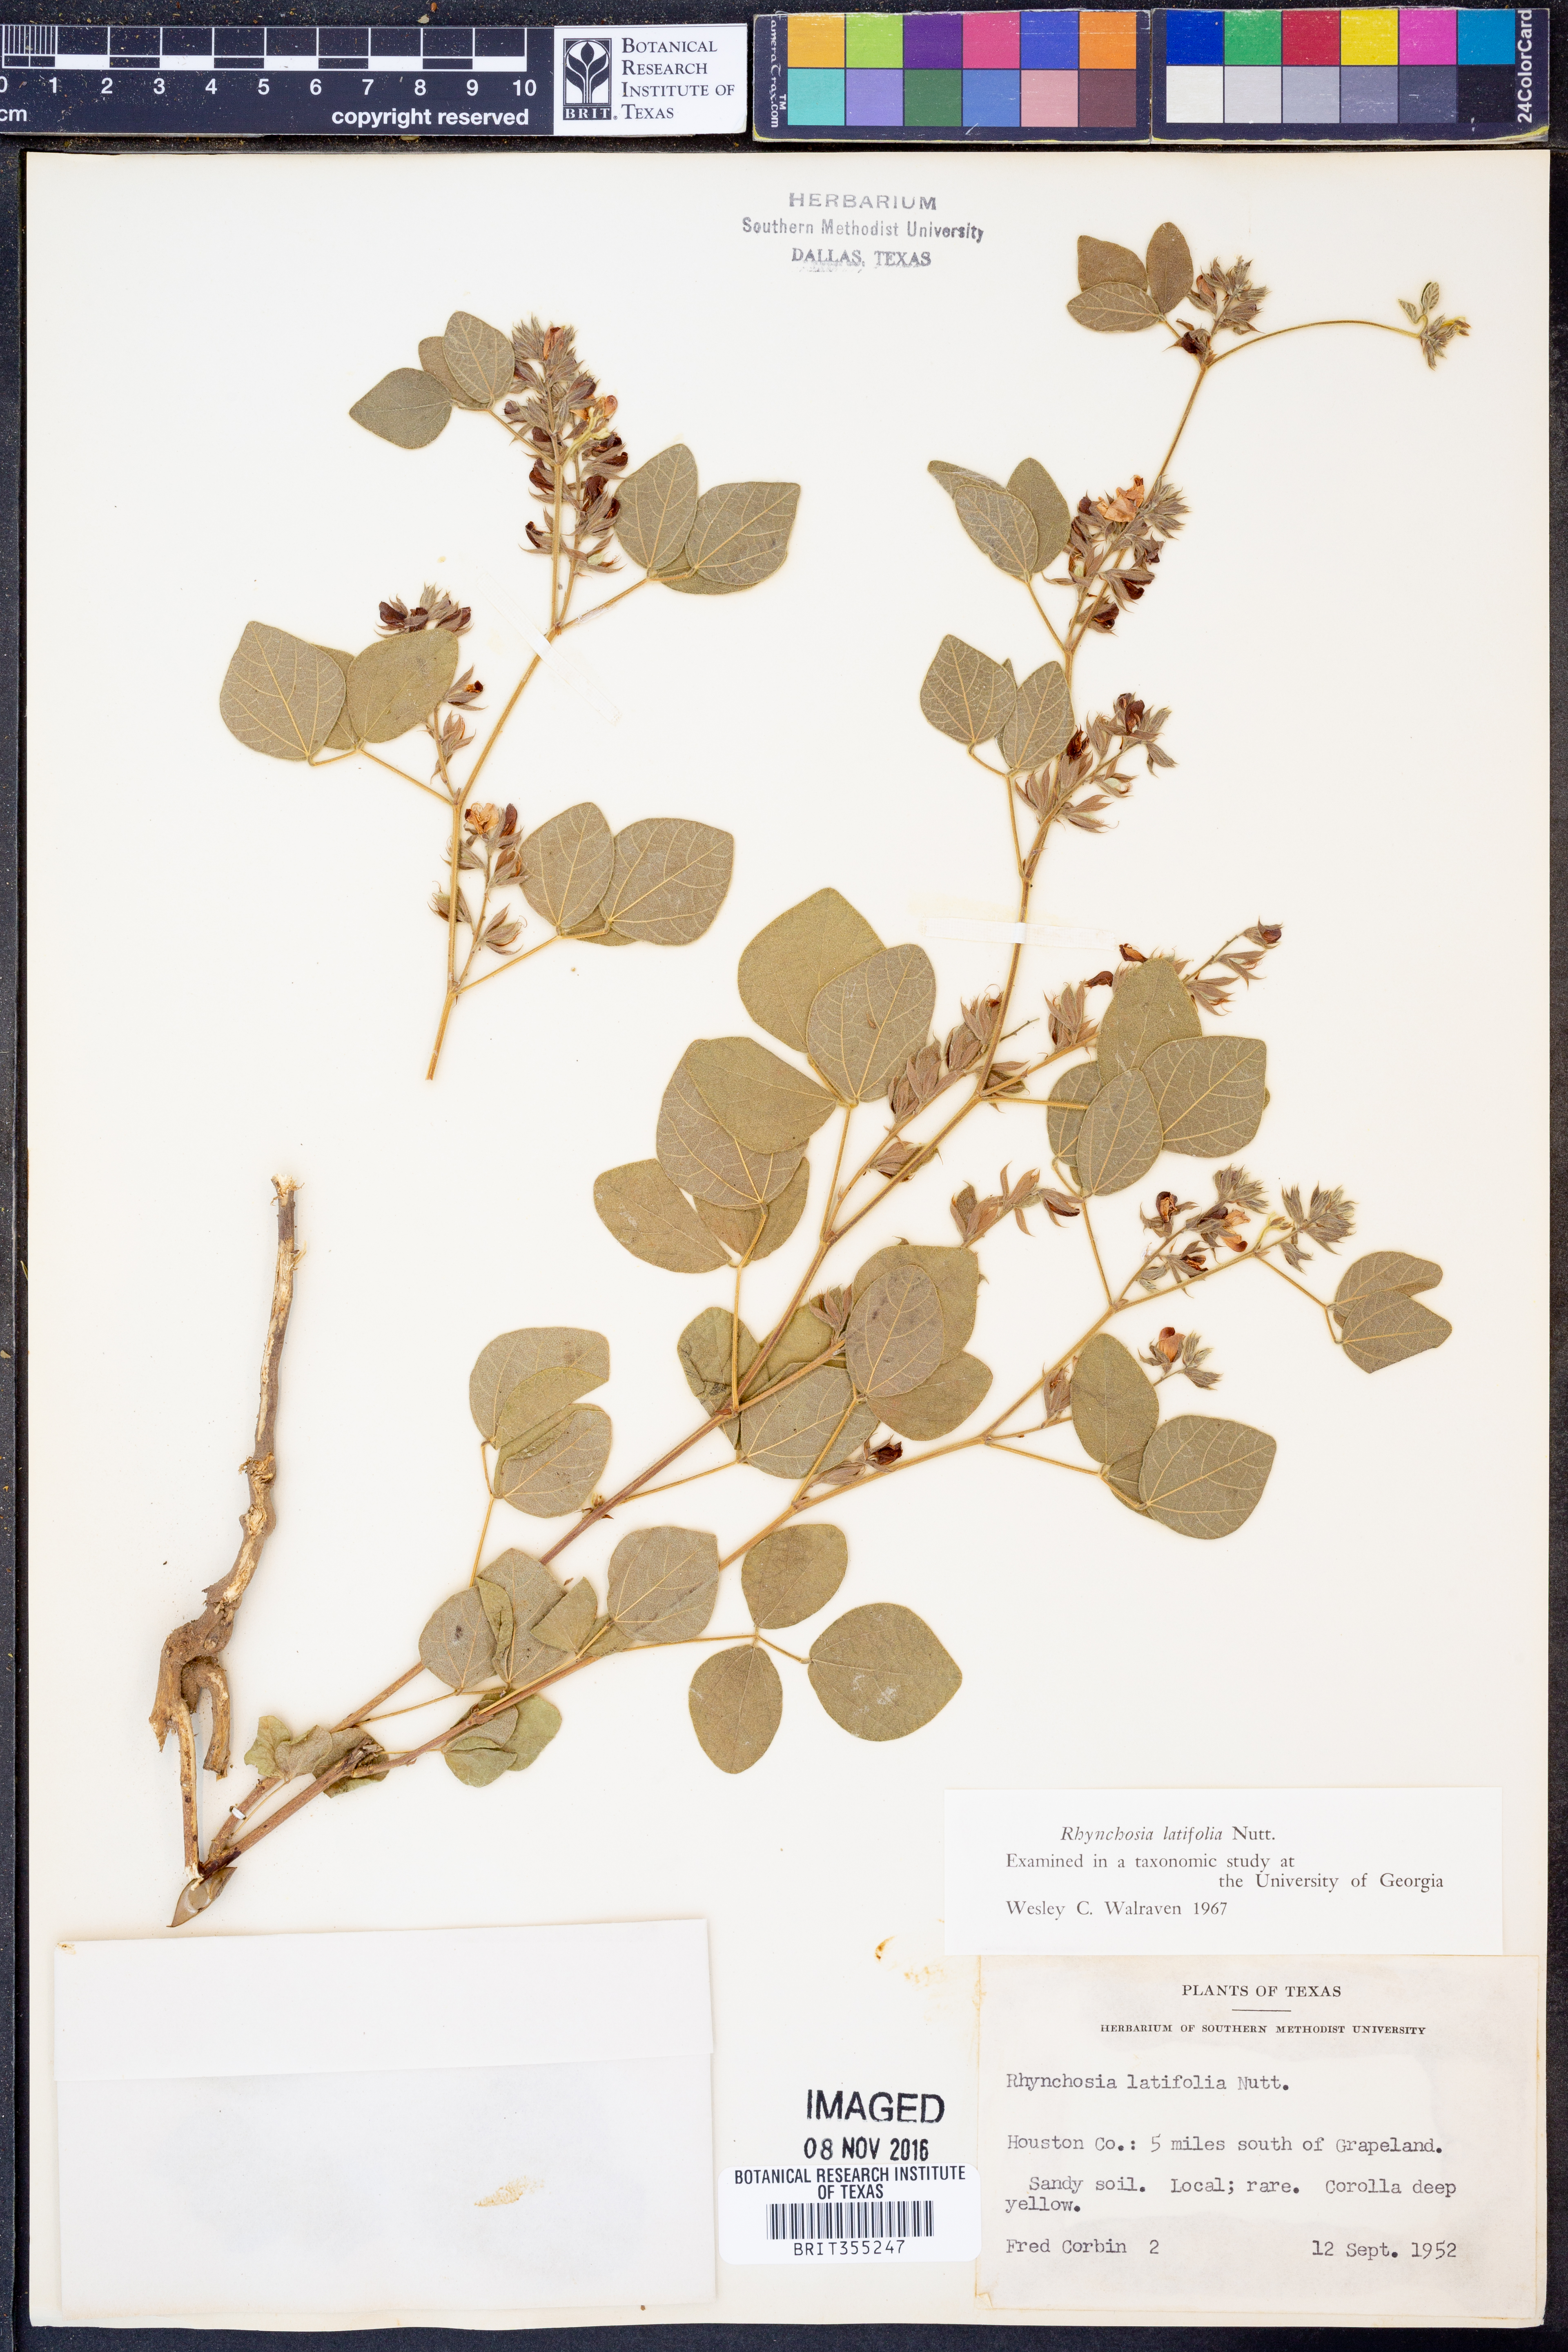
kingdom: Plantae
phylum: Tracheophyta
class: Magnoliopsida
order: Fabales
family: Fabaceae
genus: Rhynchosia
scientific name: Rhynchosia latifolia
